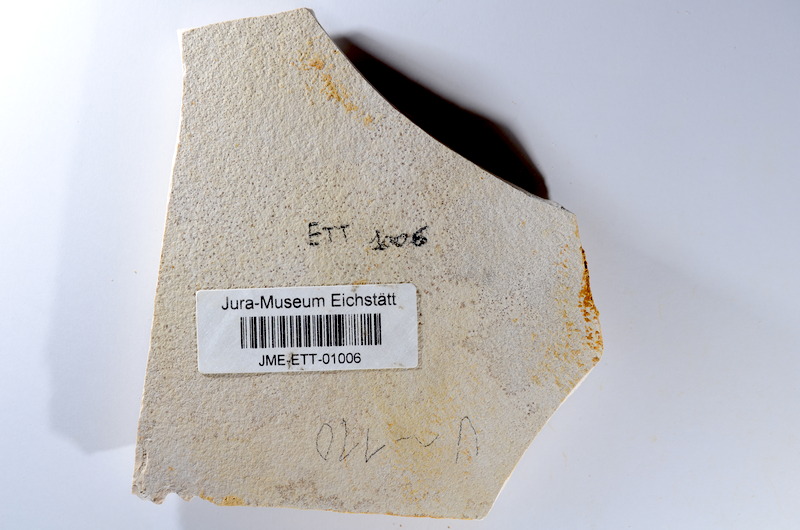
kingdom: Animalia
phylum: Chordata
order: Salmoniformes
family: Orthogonikleithridae
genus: Orthogonikleithrus
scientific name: Orthogonikleithrus hoelli
